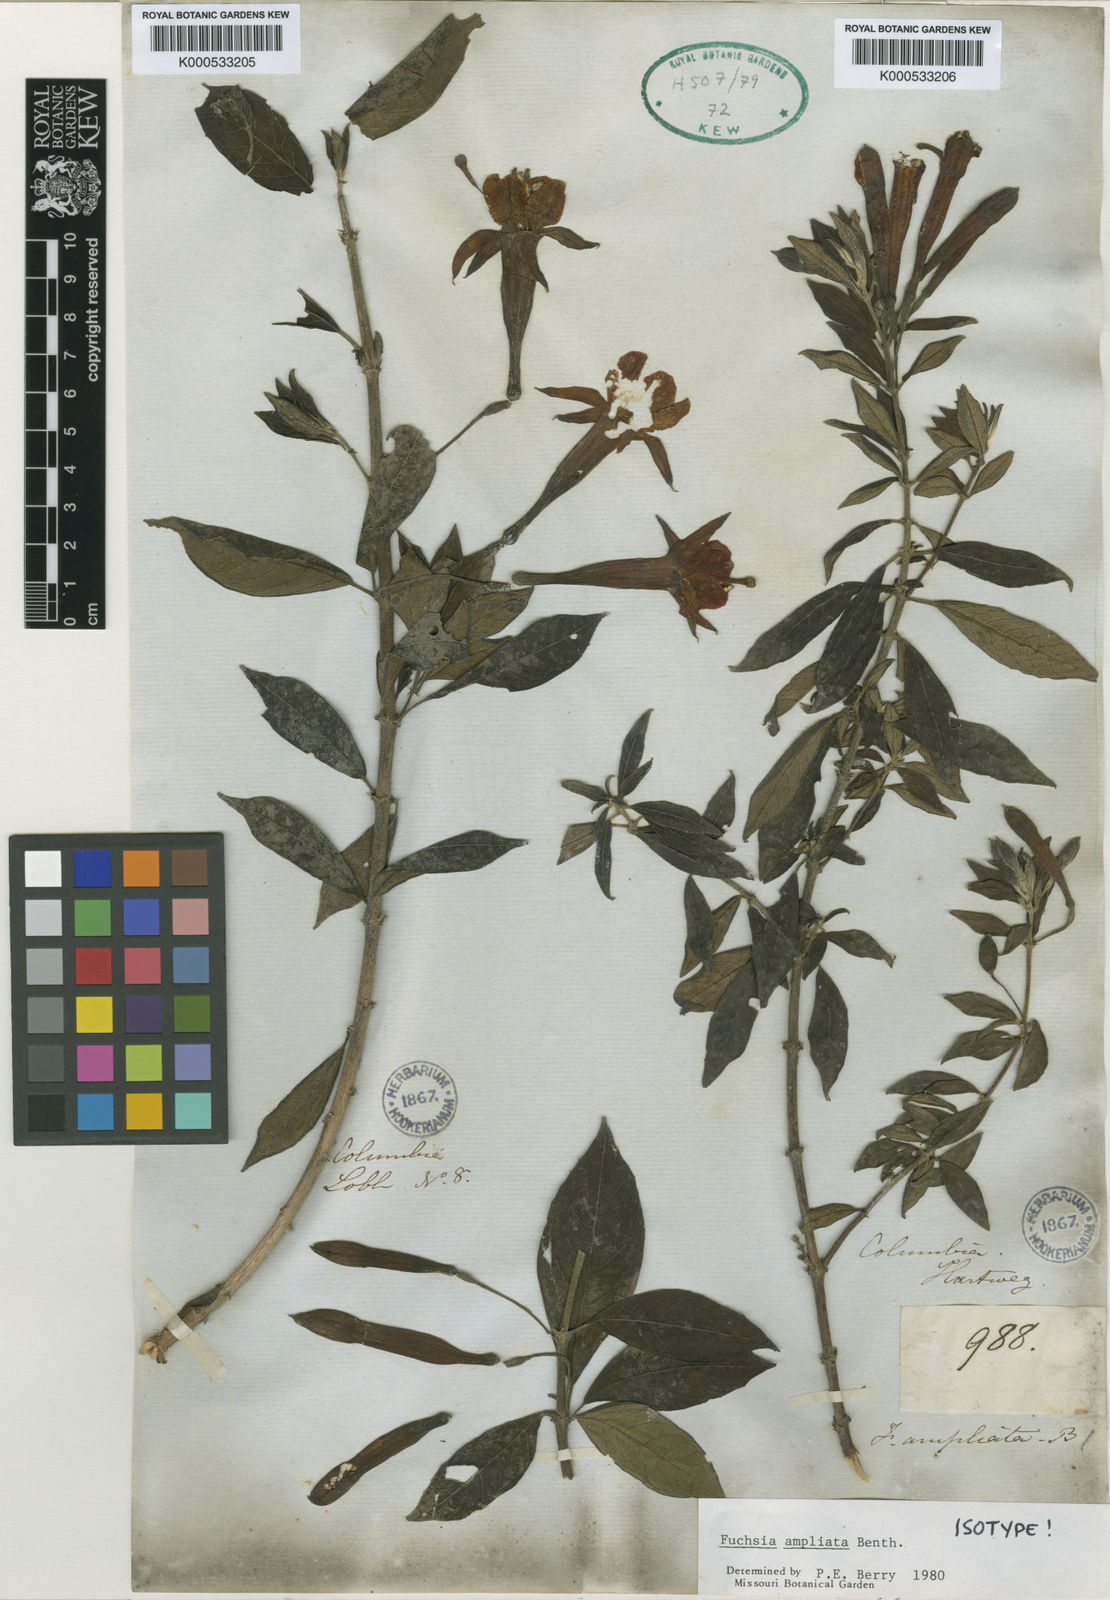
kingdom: Plantae
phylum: Tracheophyta
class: Magnoliopsida
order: Myrtales
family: Onagraceae
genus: Fuchsia
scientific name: Fuchsia ampliata
